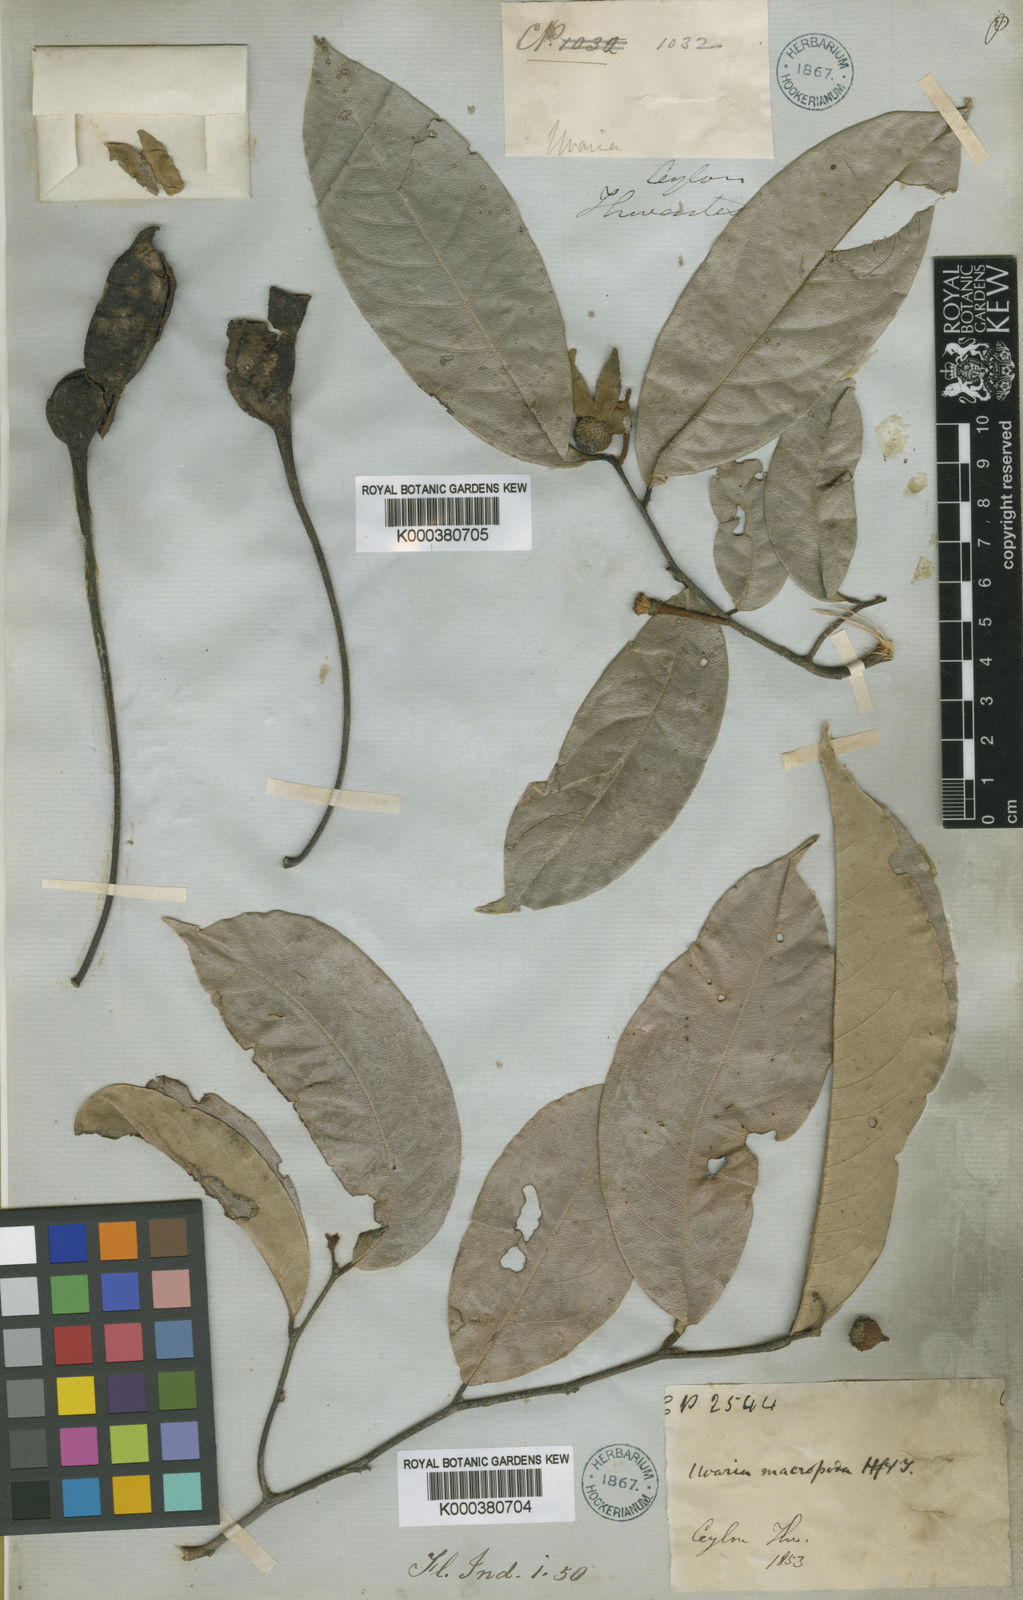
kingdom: Plantae
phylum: Tracheophyta
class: Magnoliopsida
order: Magnoliales
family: Annonaceae
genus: Uvaria
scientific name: Uvaria macropoda
